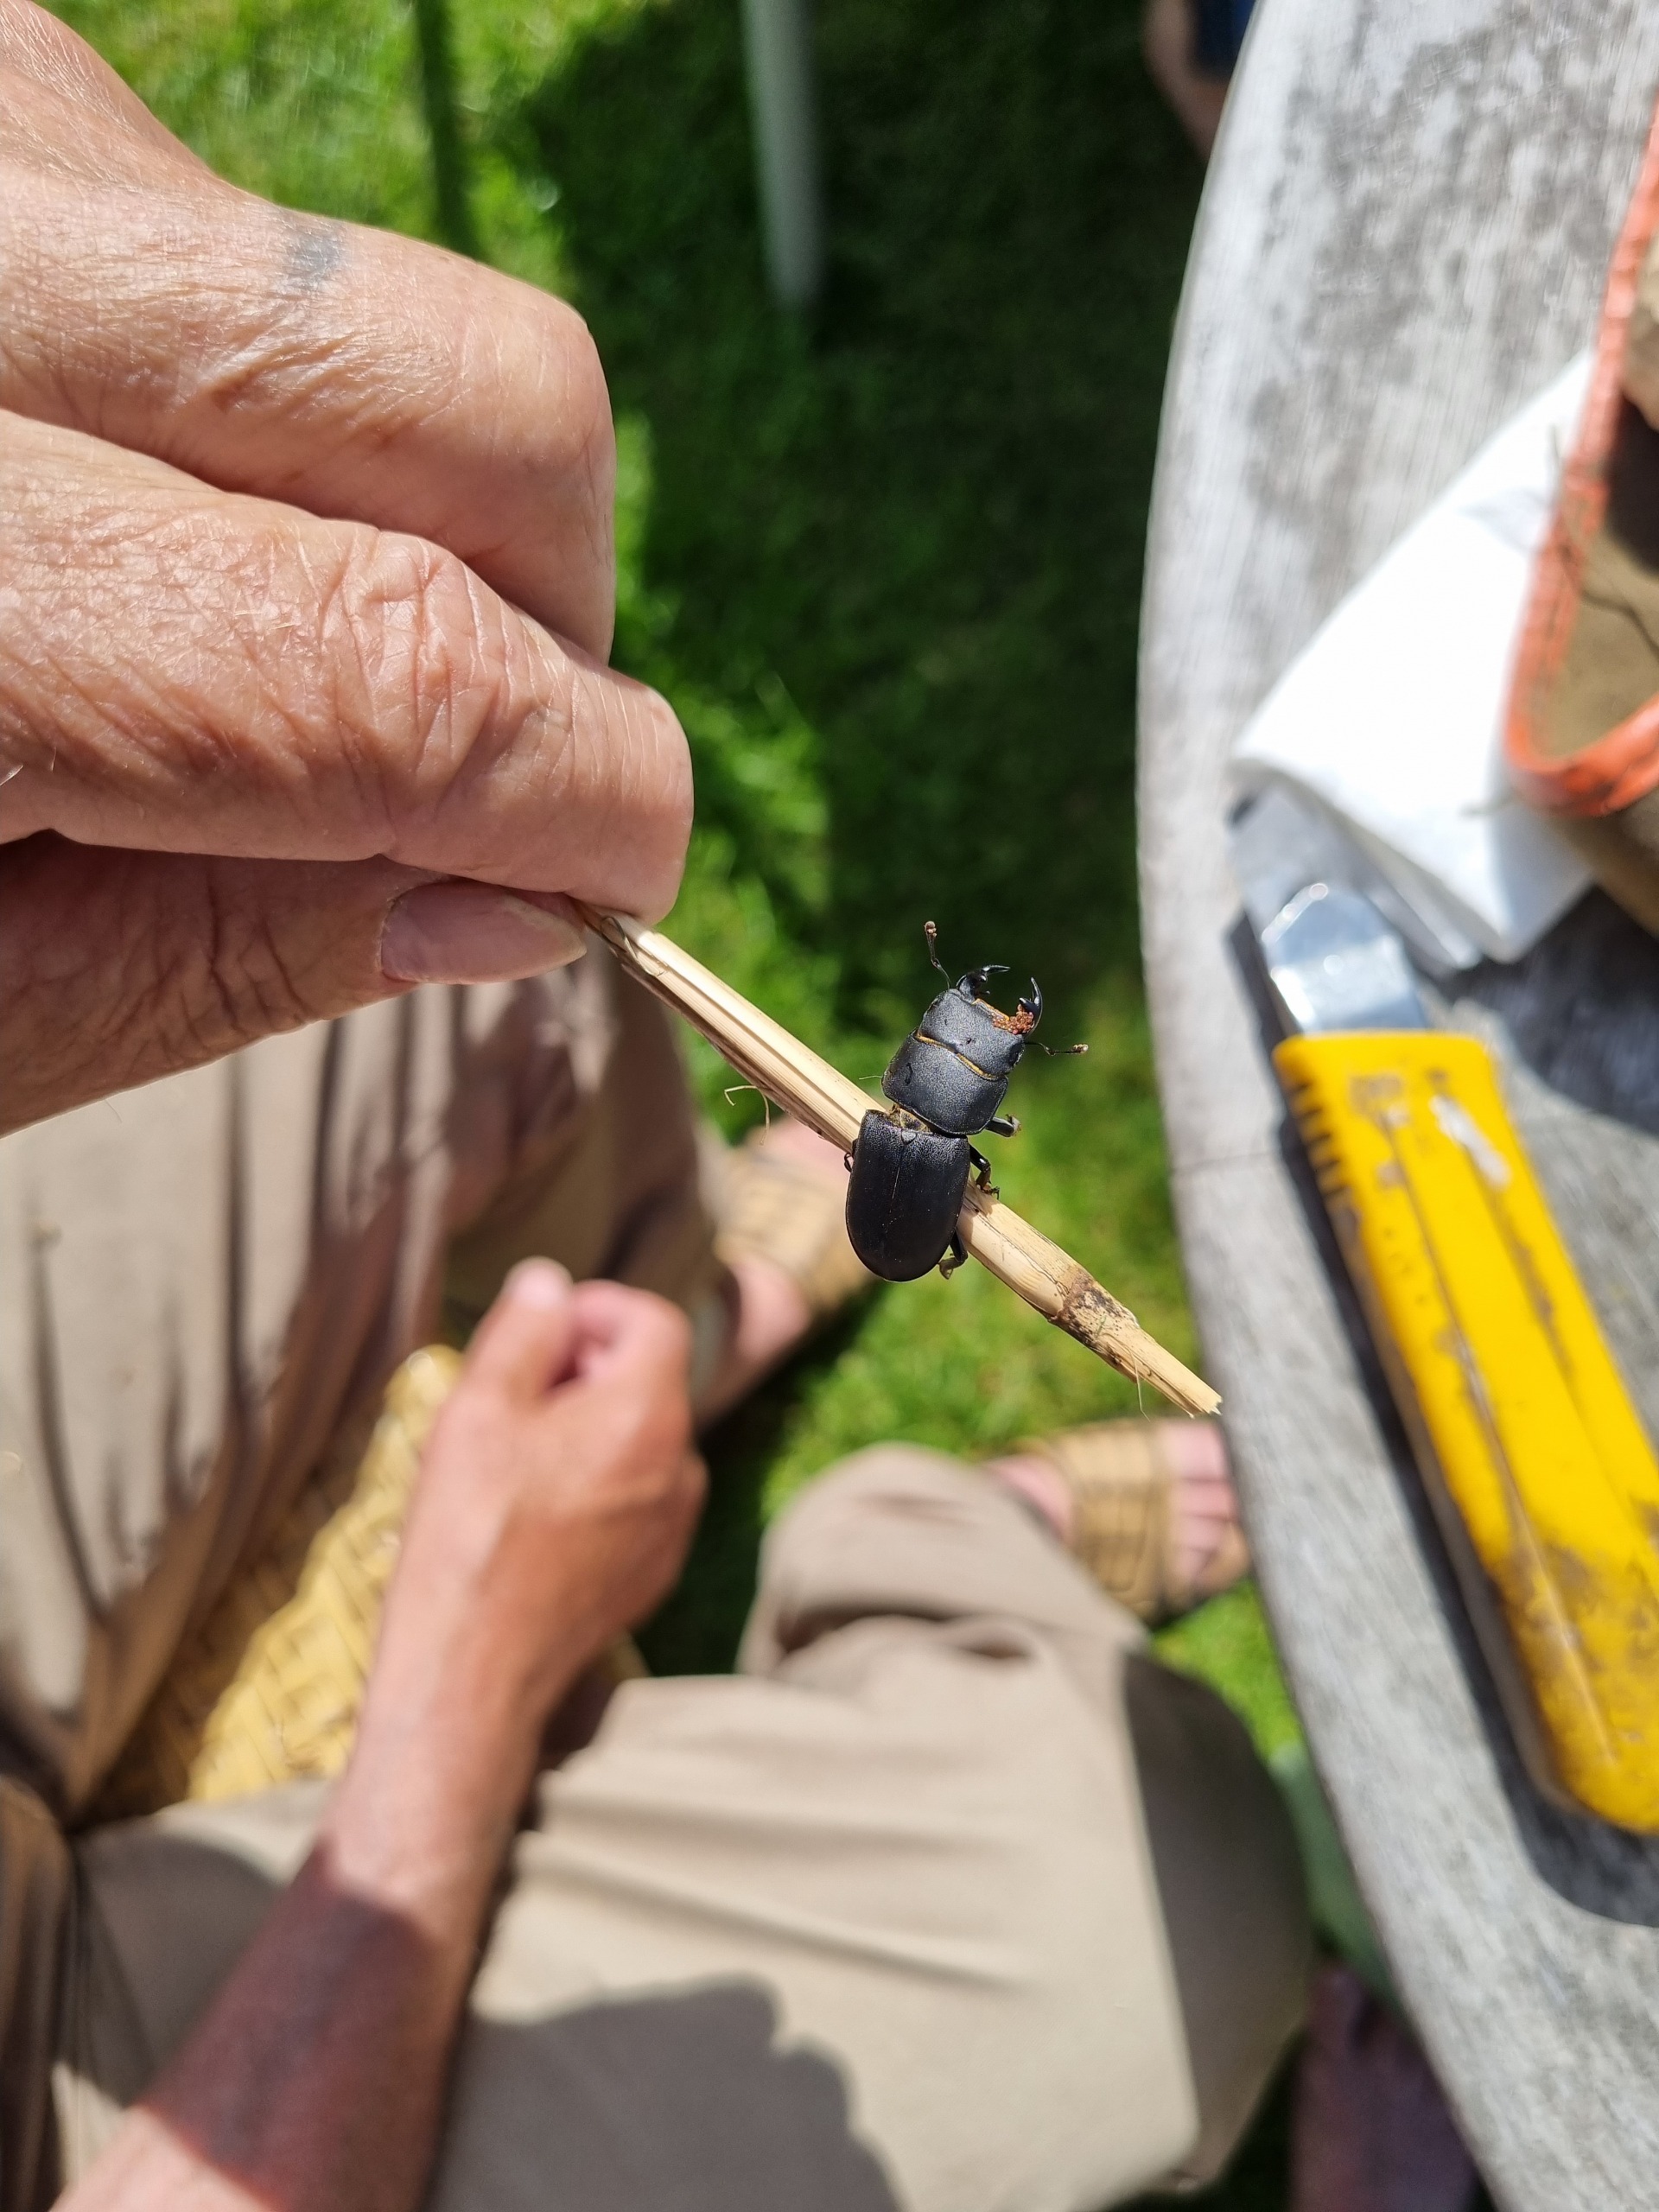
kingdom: Animalia
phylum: Arthropoda
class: Insecta
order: Coleoptera
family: Lucanidae
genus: Dorcus
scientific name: Dorcus parallelipipedus
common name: Bøghjort
